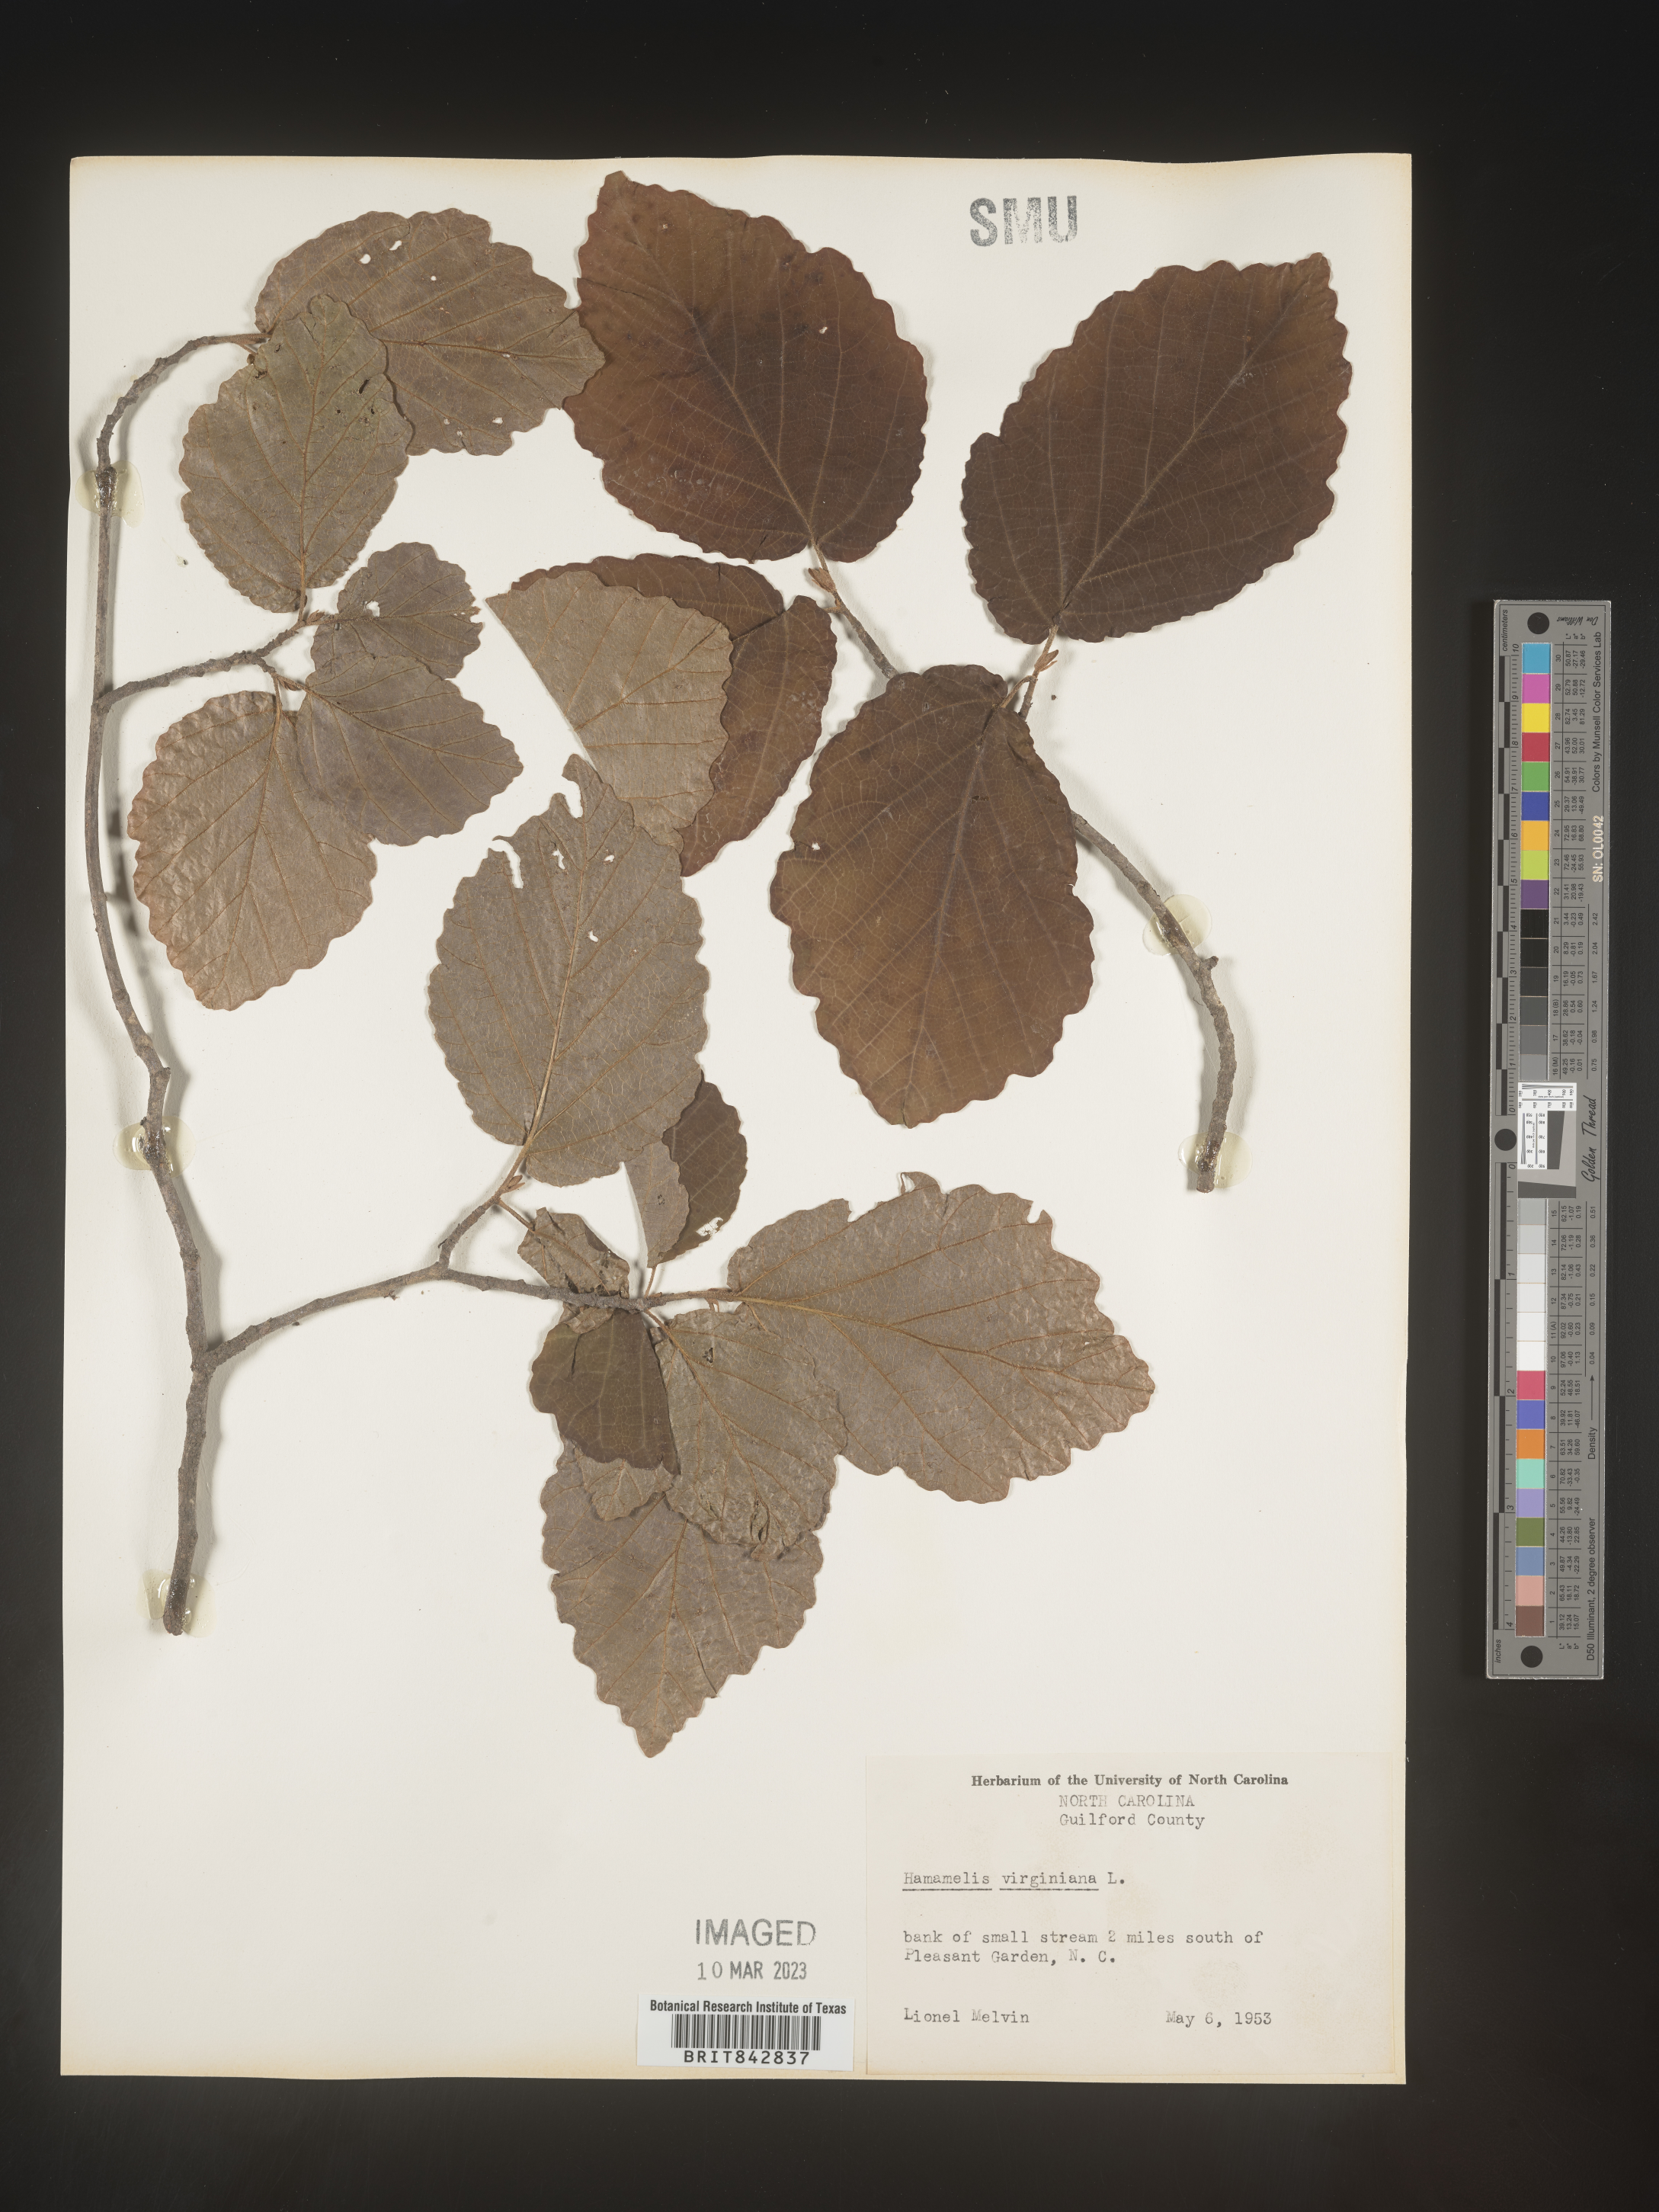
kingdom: Plantae
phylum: Tracheophyta
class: Magnoliopsida
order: Saxifragales
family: Hamamelidaceae
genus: Hamamelis
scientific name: Hamamelis virginiana
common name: Witch-hazel
